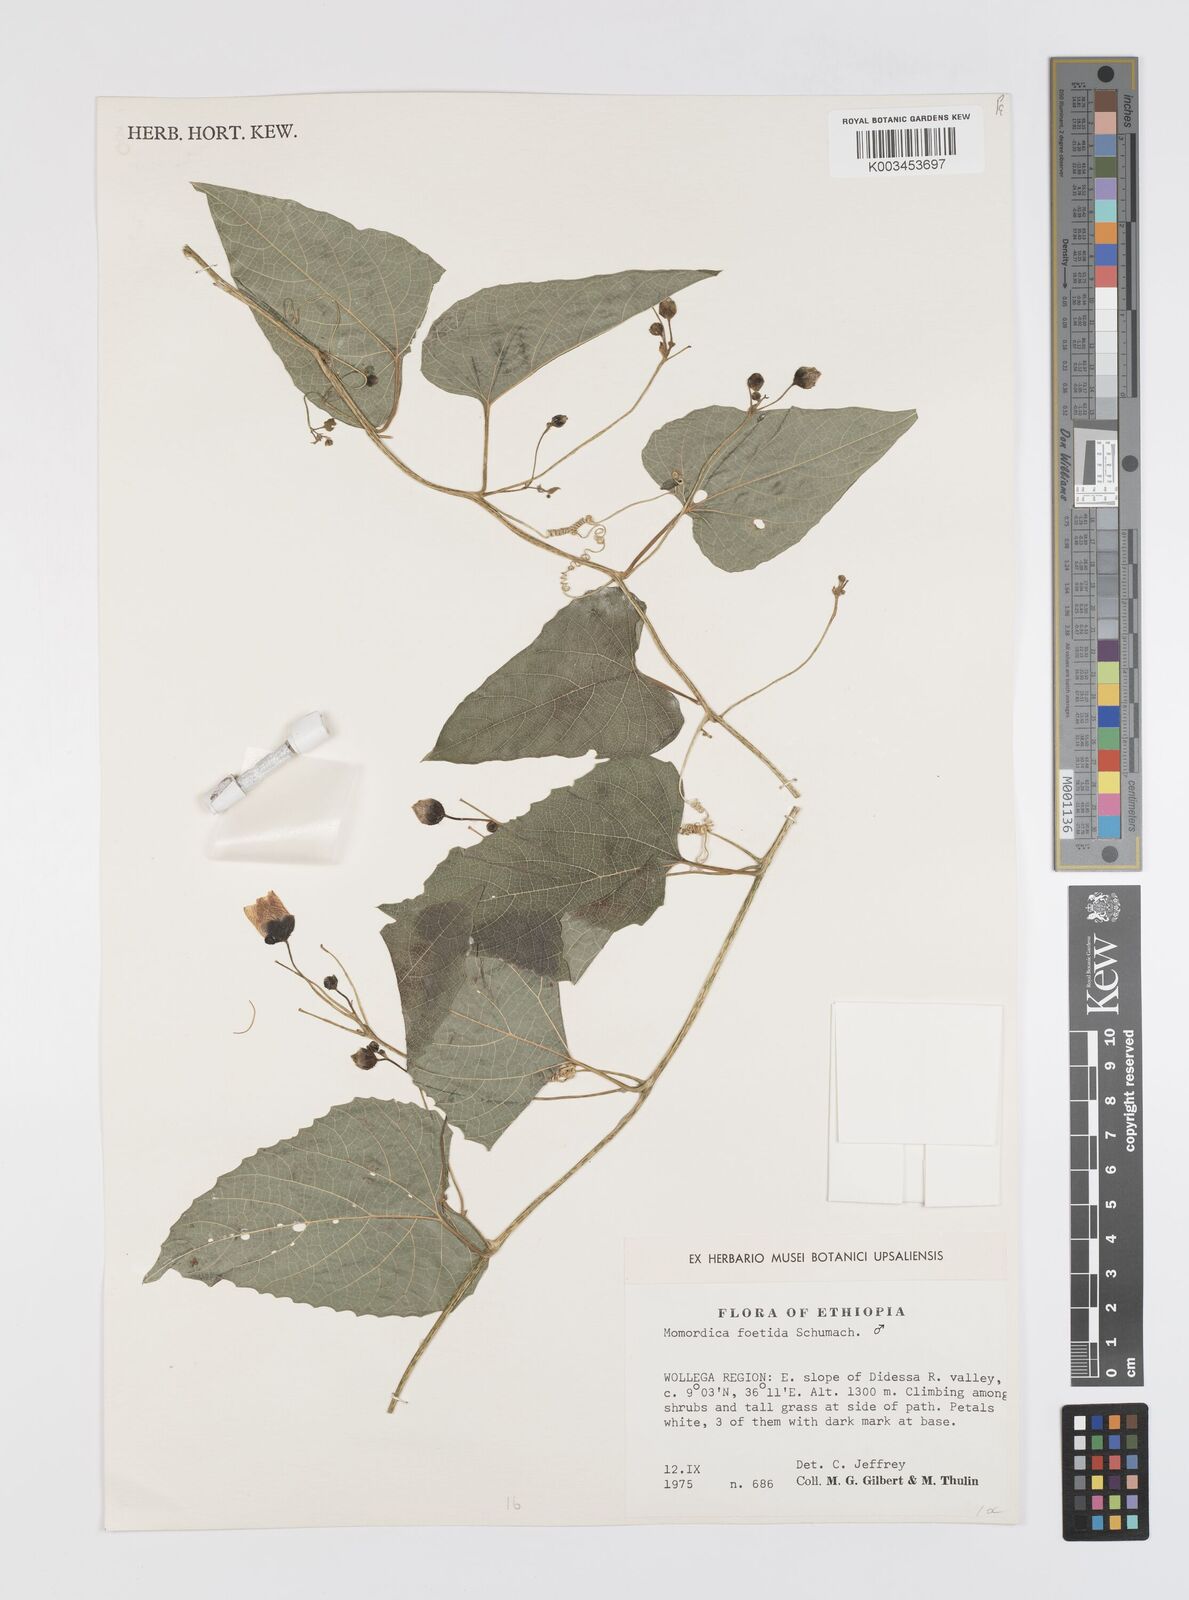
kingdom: Plantae
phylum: Tracheophyta
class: Magnoliopsida
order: Cucurbitales
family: Cucurbitaceae
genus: Momordica
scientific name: Momordica foetida
